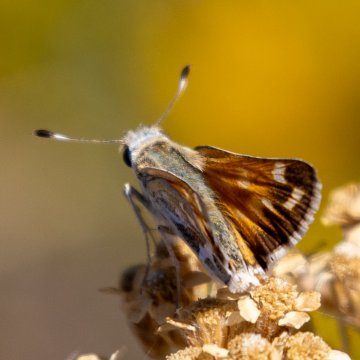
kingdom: Animalia
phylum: Arthropoda
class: Insecta
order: Lepidoptera
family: Hesperiidae
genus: Hesperia
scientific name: Hesperia juba
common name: Juba Skipper
